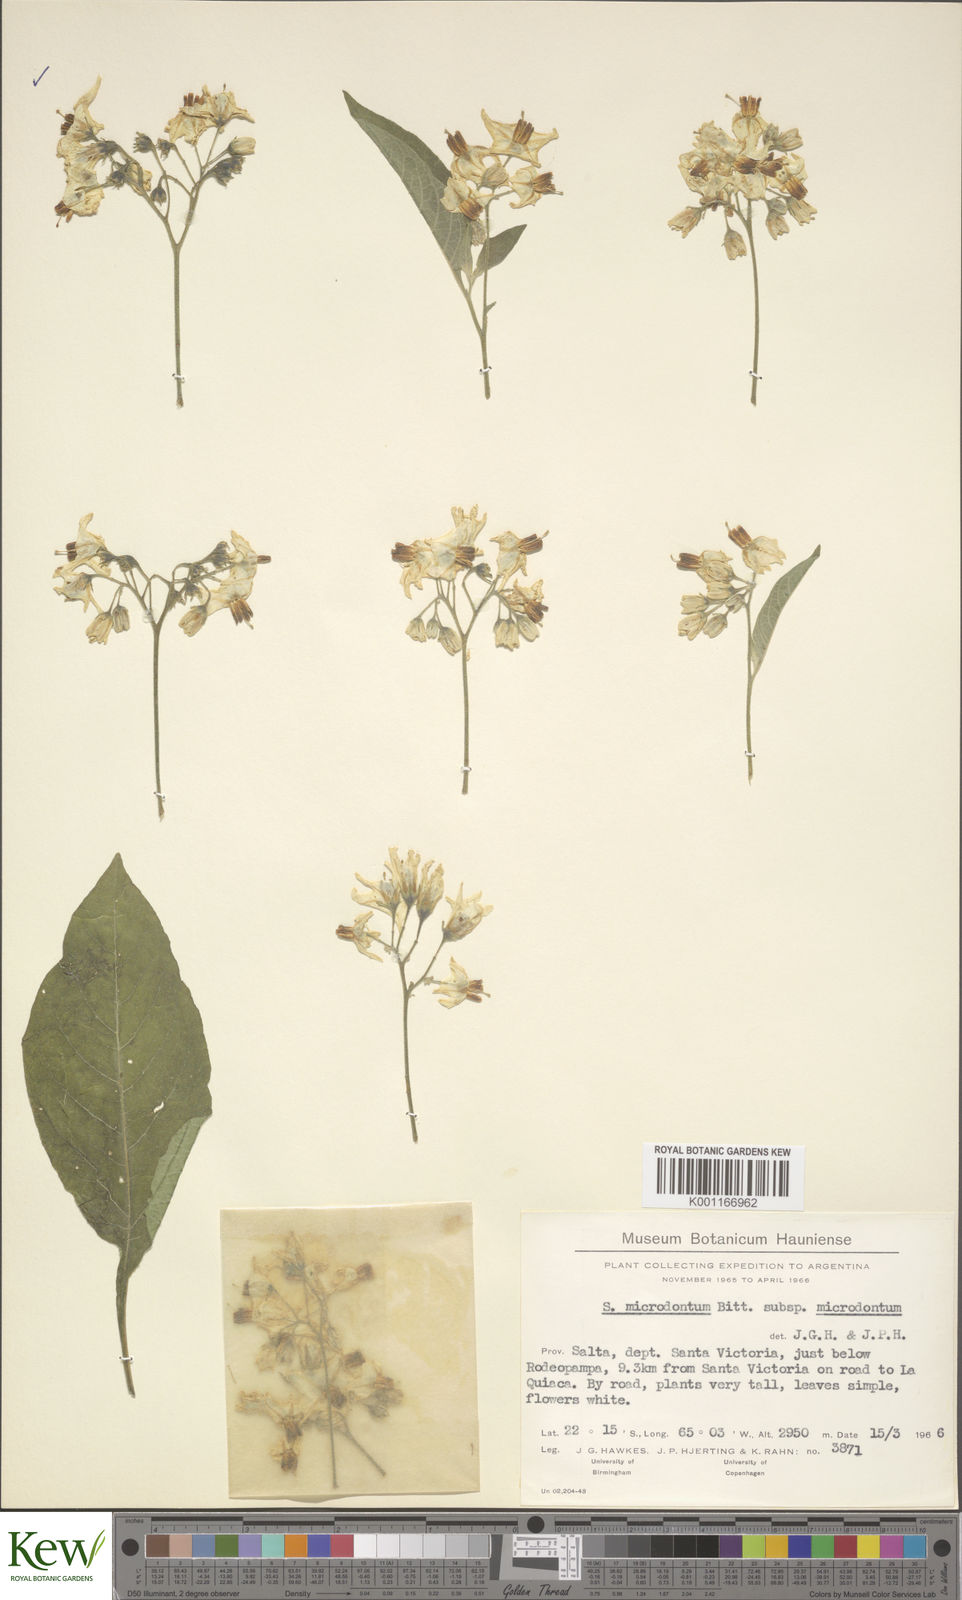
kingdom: Plantae
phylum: Tracheophyta
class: Magnoliopsida
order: Solanales
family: Solanaceae
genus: Solanum
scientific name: Solanum microdontum
